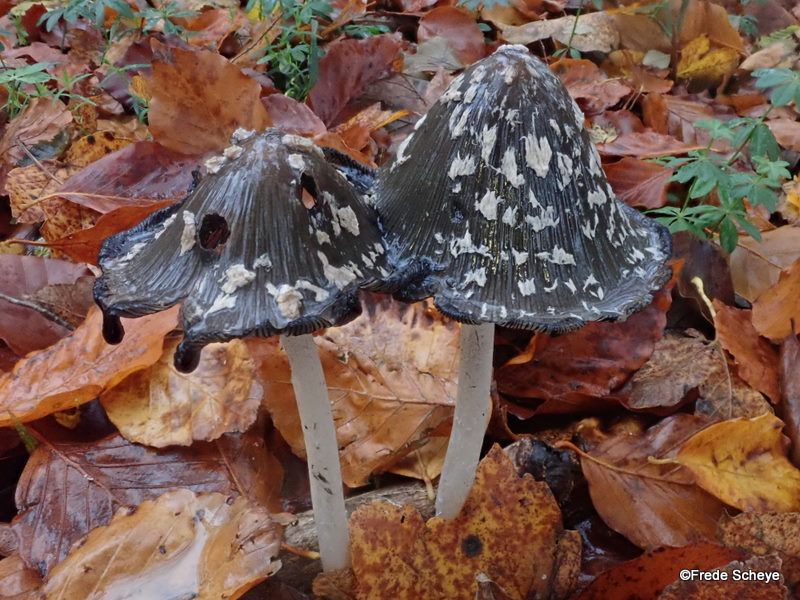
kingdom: Fungi
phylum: Basidiomycota
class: Agaricomycetes
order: Agaricales
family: Psathyrellaceae
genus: Coprinopsis
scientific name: Coprinopsis picacea
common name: skade-blækhat
